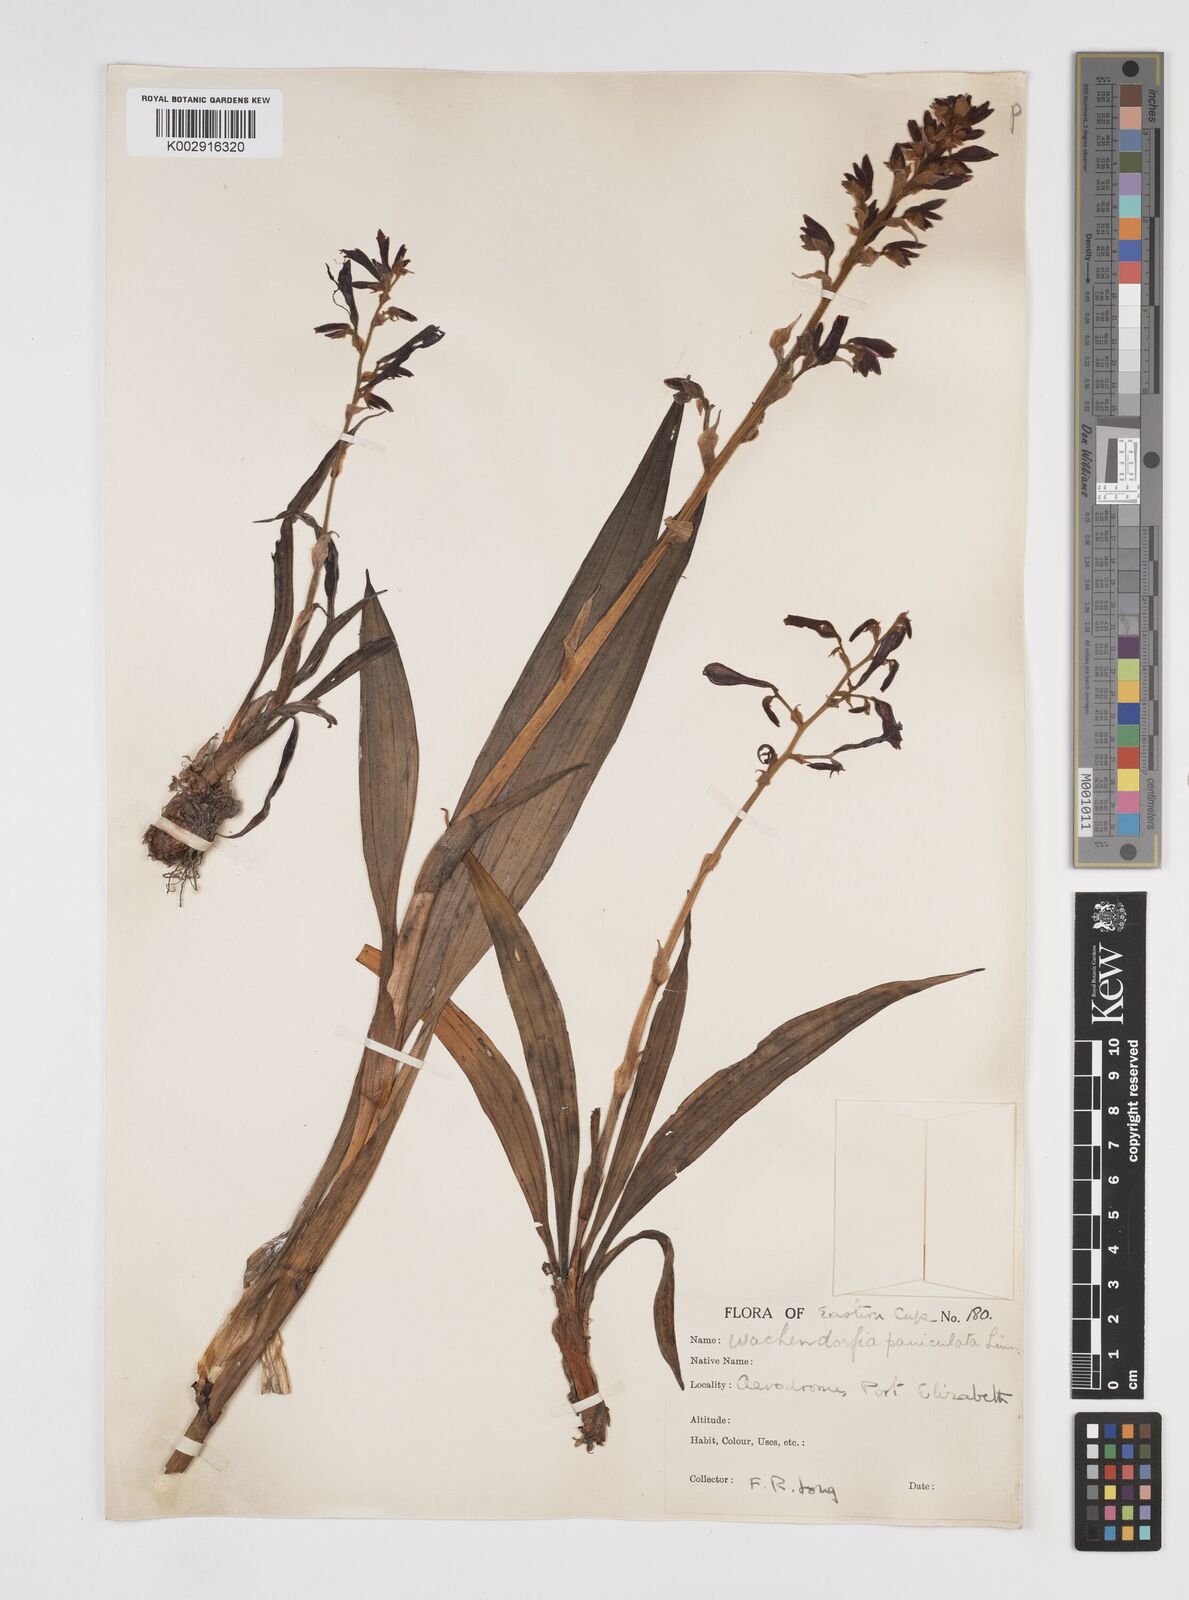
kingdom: Plantae
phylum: Tracheophyta
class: Liliopsida
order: Commelinales
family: Haemodoraceae
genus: Wachendorfia
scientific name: Wachendorfia paniculata
